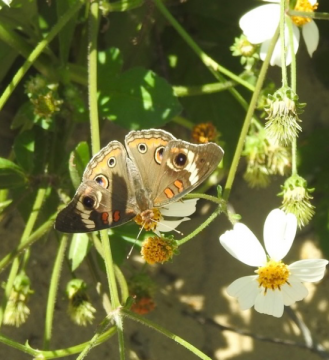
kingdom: Animalia
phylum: Arthropoda
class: Insecta
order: Lepidoptera
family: Nymphalidae
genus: Junonia
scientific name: Junonia coenia
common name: Common Buckeye
